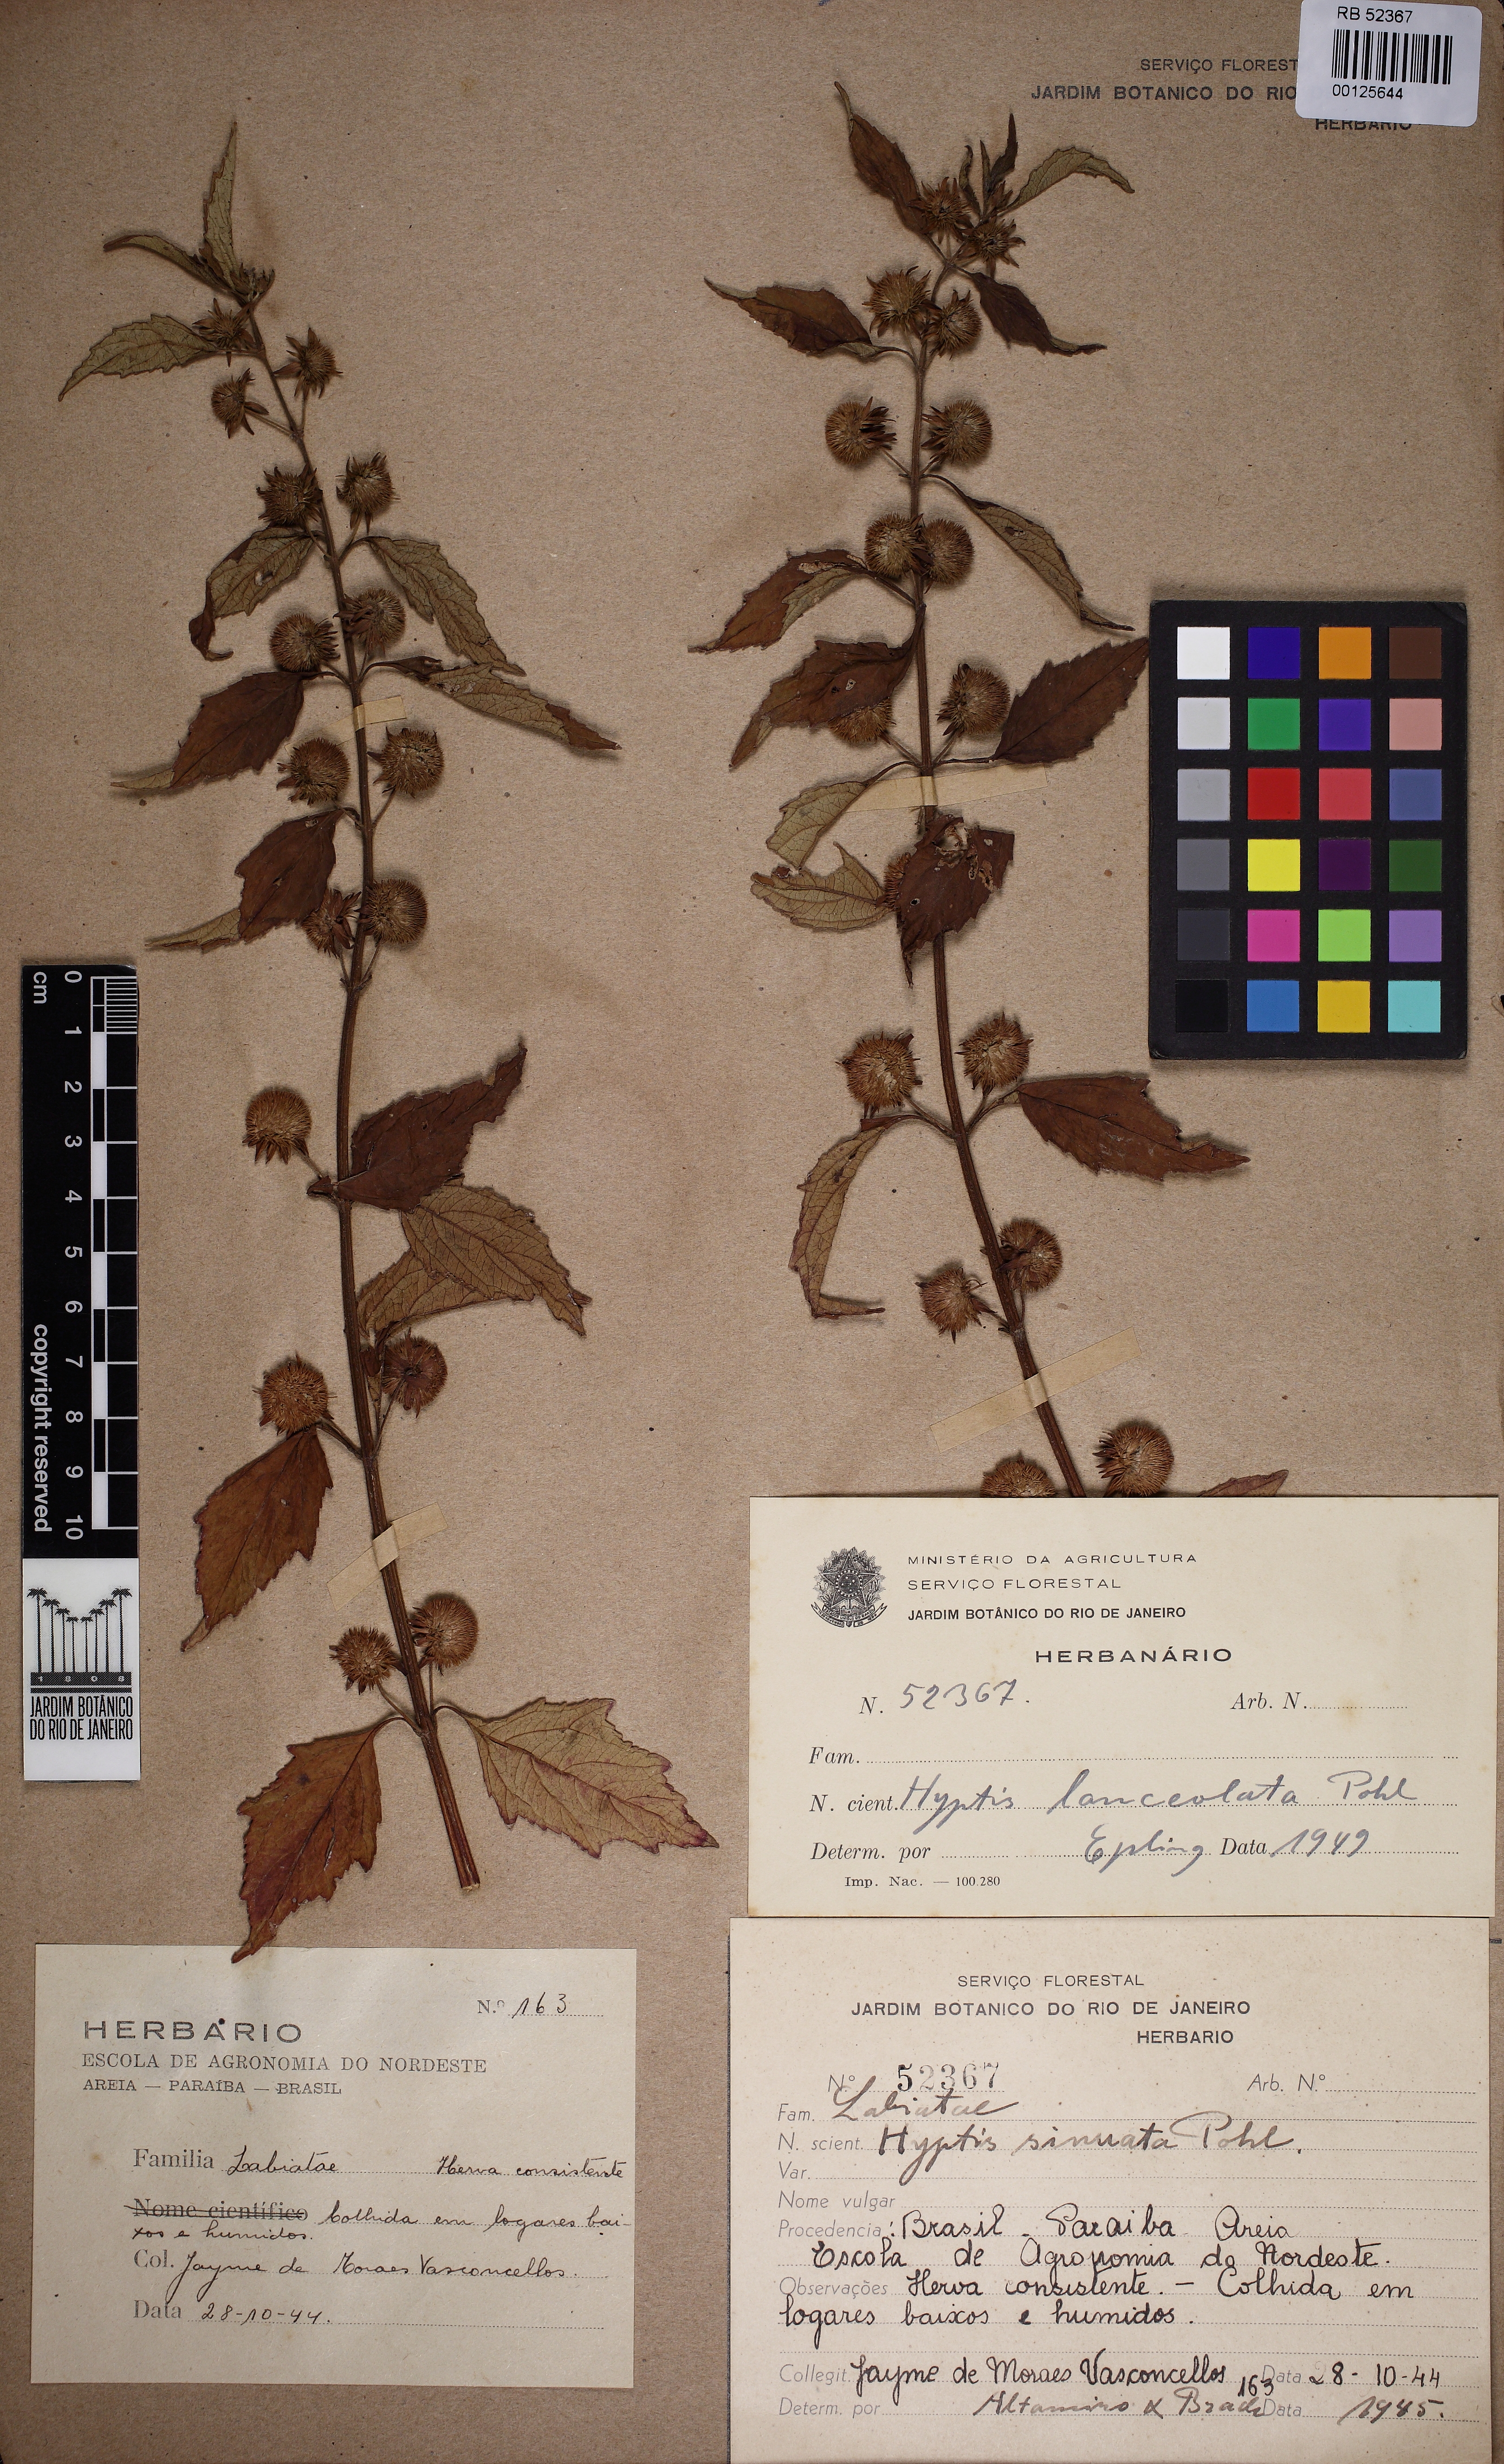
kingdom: Plantae
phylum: Tracheophyta
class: Magnoliopsida
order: Lamiales
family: Lamiaceae
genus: Hyptis
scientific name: Hyptis lanceolata
